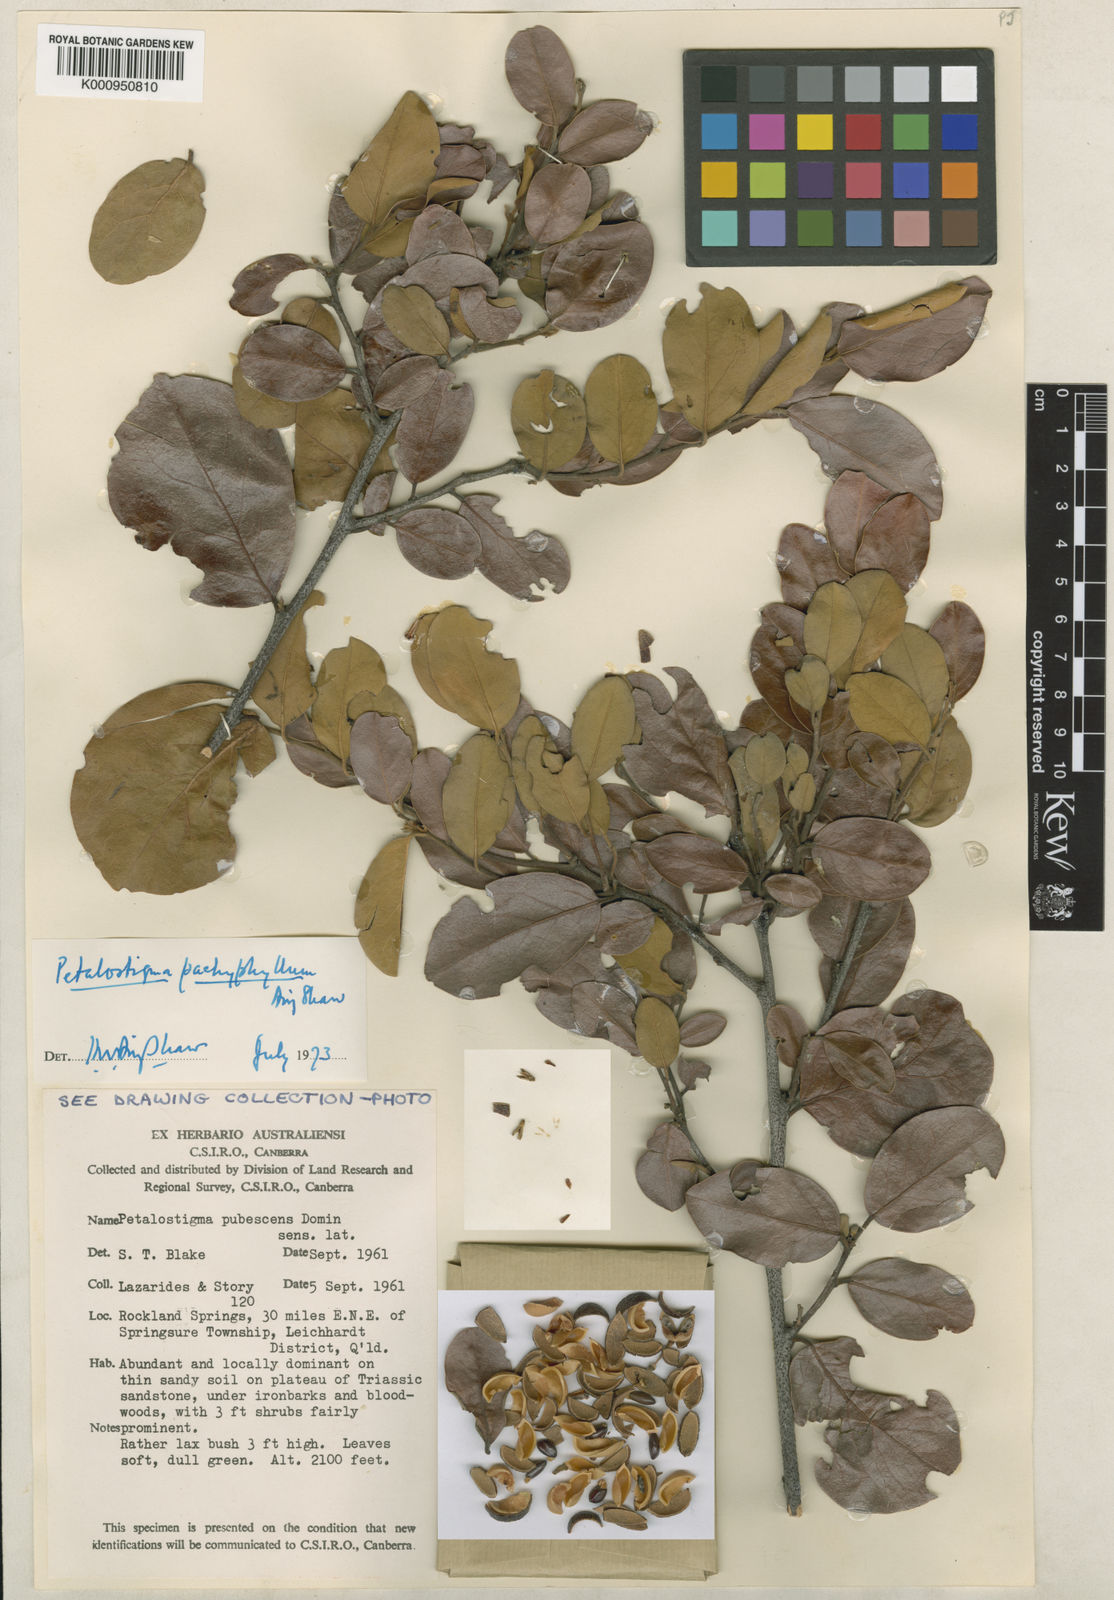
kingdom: Plantae
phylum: Tracheophyta
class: Magnoliopsida
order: Malpighiales
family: Picrodendraceae
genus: Petalostigma
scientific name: Petalostigma pachyphyllum
